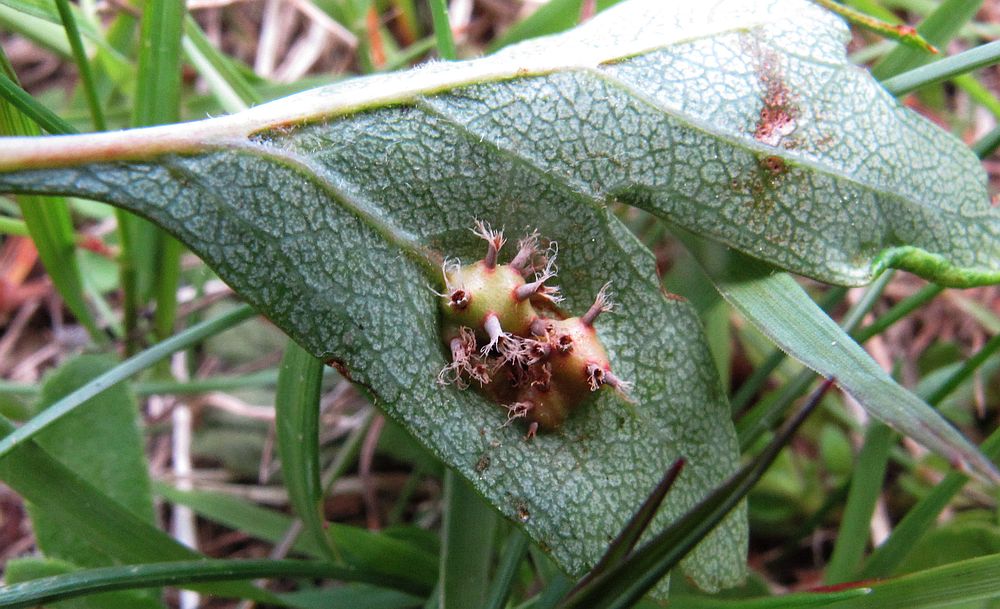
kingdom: Fungi
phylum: Basidiomycota
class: Pucciniomycetes
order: Pucciniales
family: Gymnosporangiaceae
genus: Gymnosporangium
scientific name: Gymnosporangium clavariiforme
